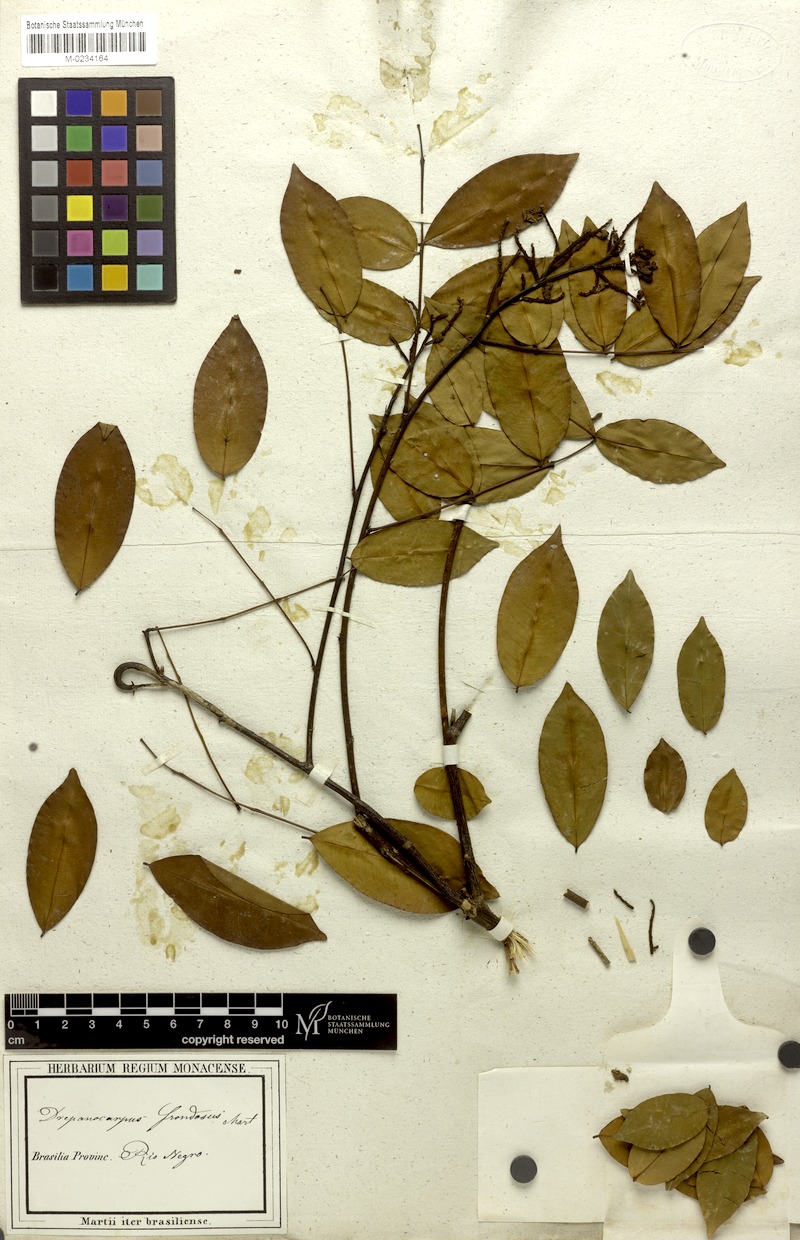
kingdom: Plantae
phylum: Tracheophyta
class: Magnoliopsida
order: Fabales
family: Fabaceae
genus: Machaerium
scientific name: Machaerium leiophyllum
